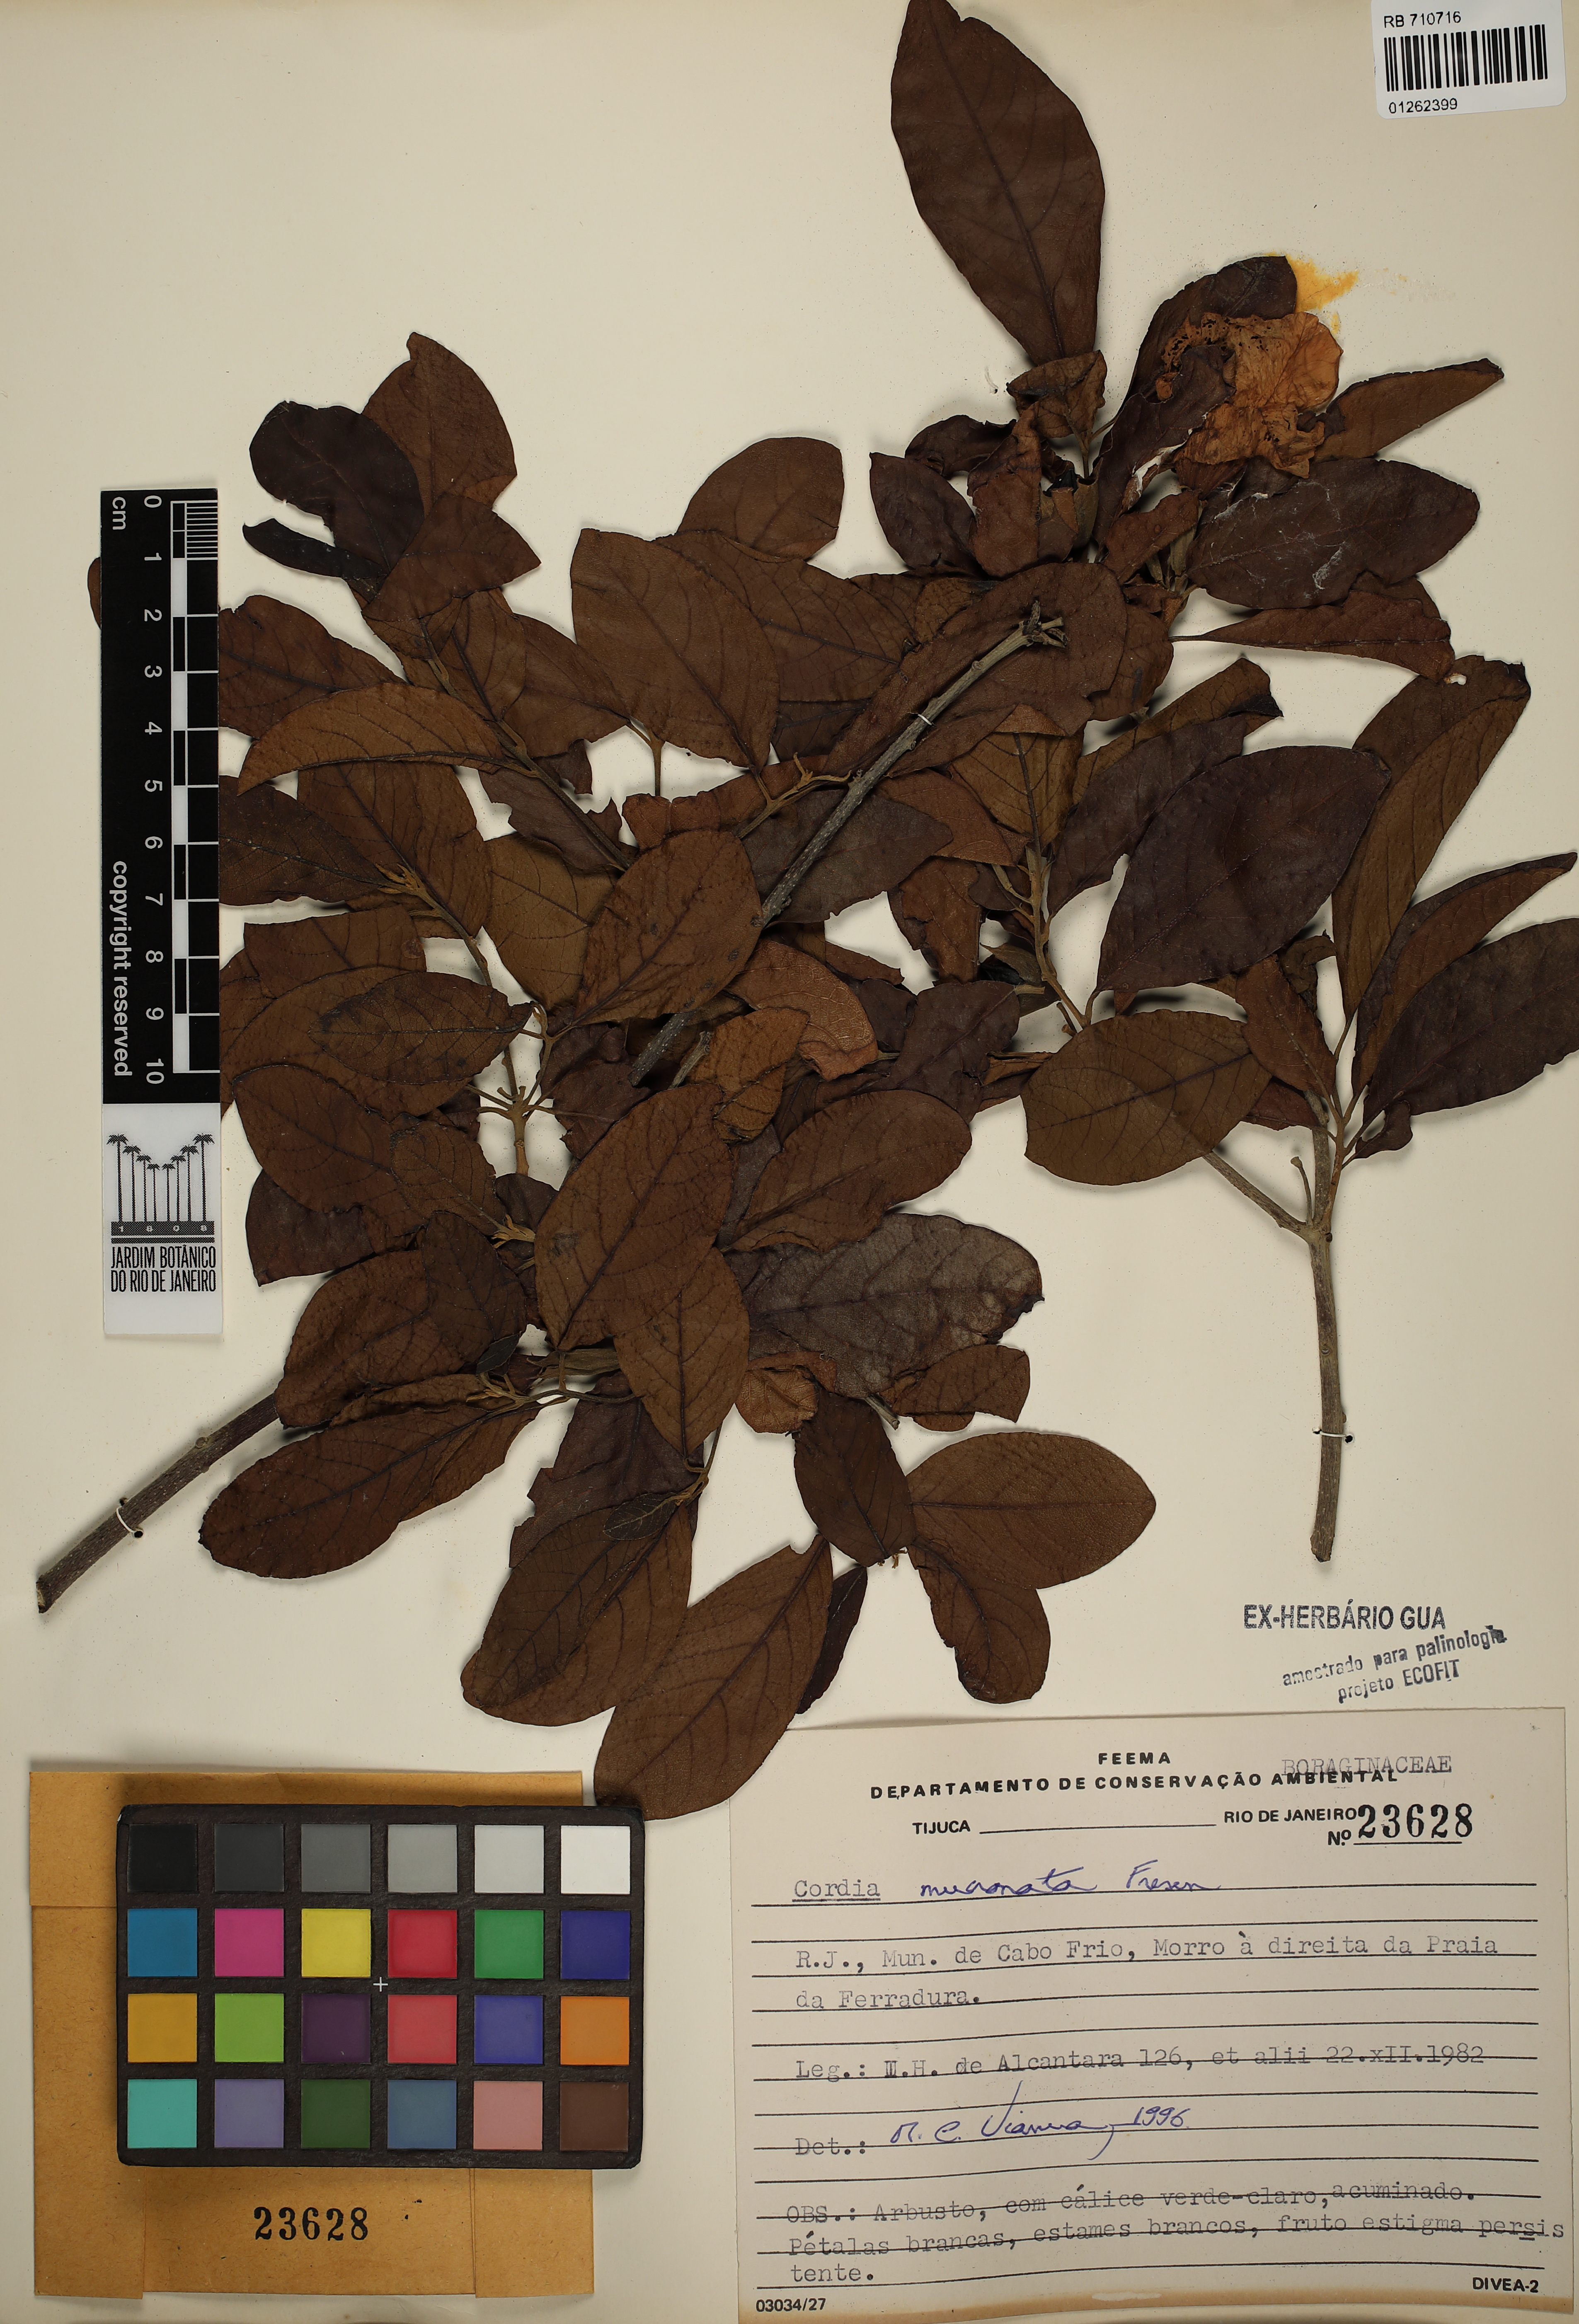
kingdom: Plantae
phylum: Tracheophyta
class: Magnoliopsida
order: Boraginales
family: Cordiaceae
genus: Cordia
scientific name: Cordia aberrans
